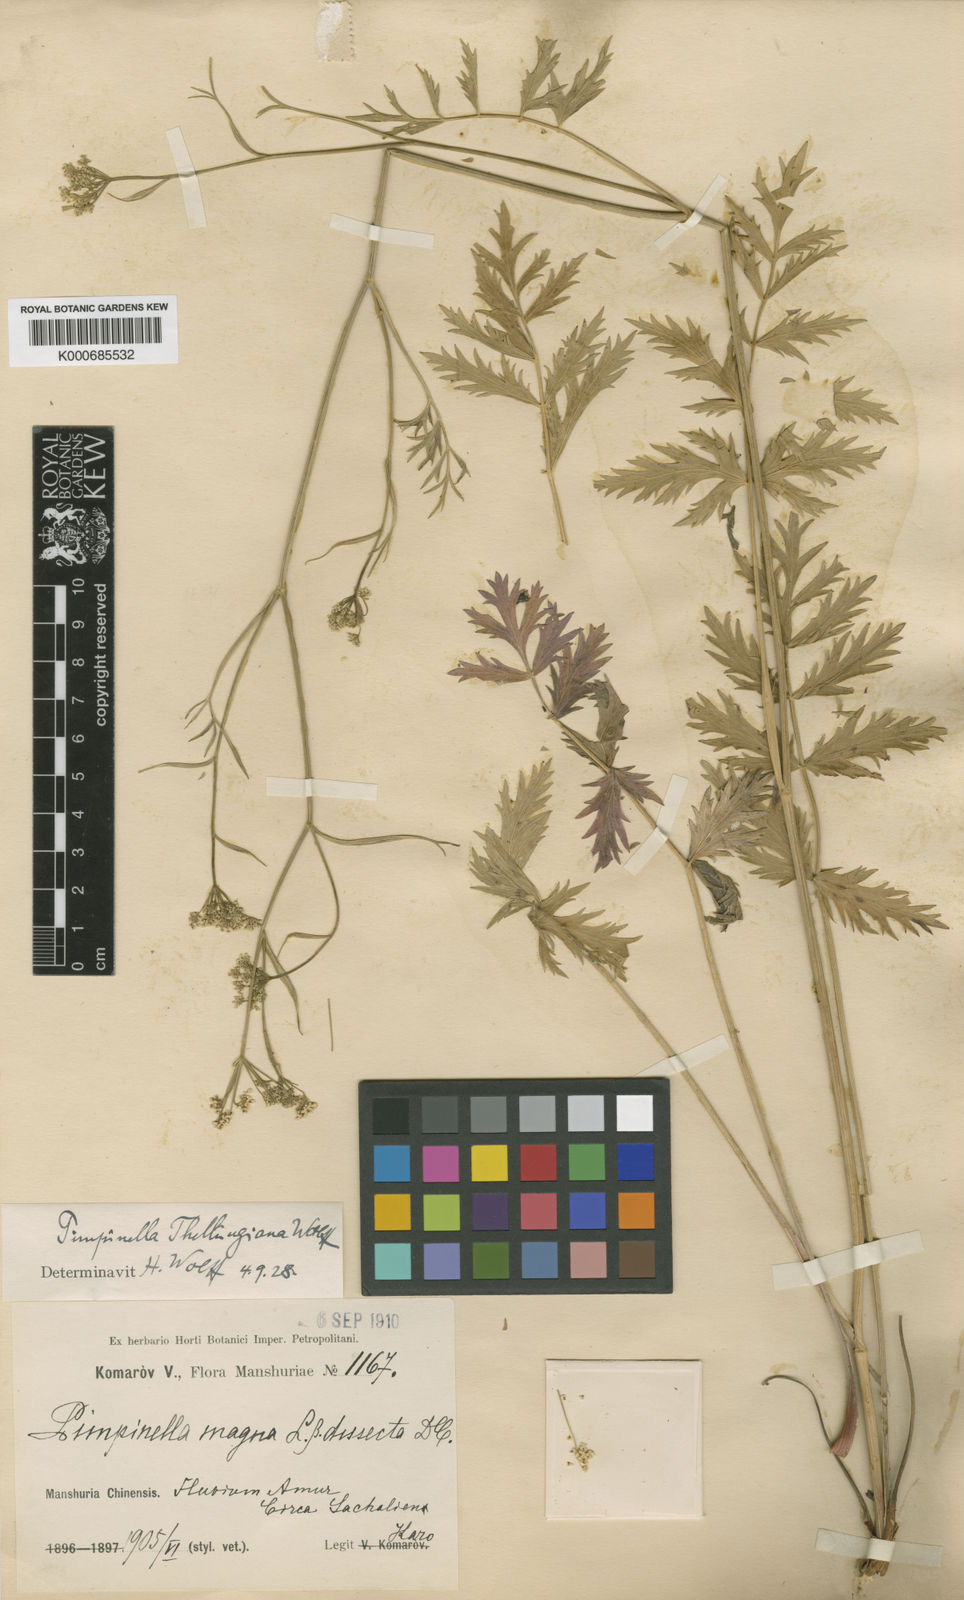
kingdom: Plantae
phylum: Tracheophyta
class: Magnoliopsida
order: Apiales
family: Apiaceae
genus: Pimpinella
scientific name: Pimpinella thellungiana
